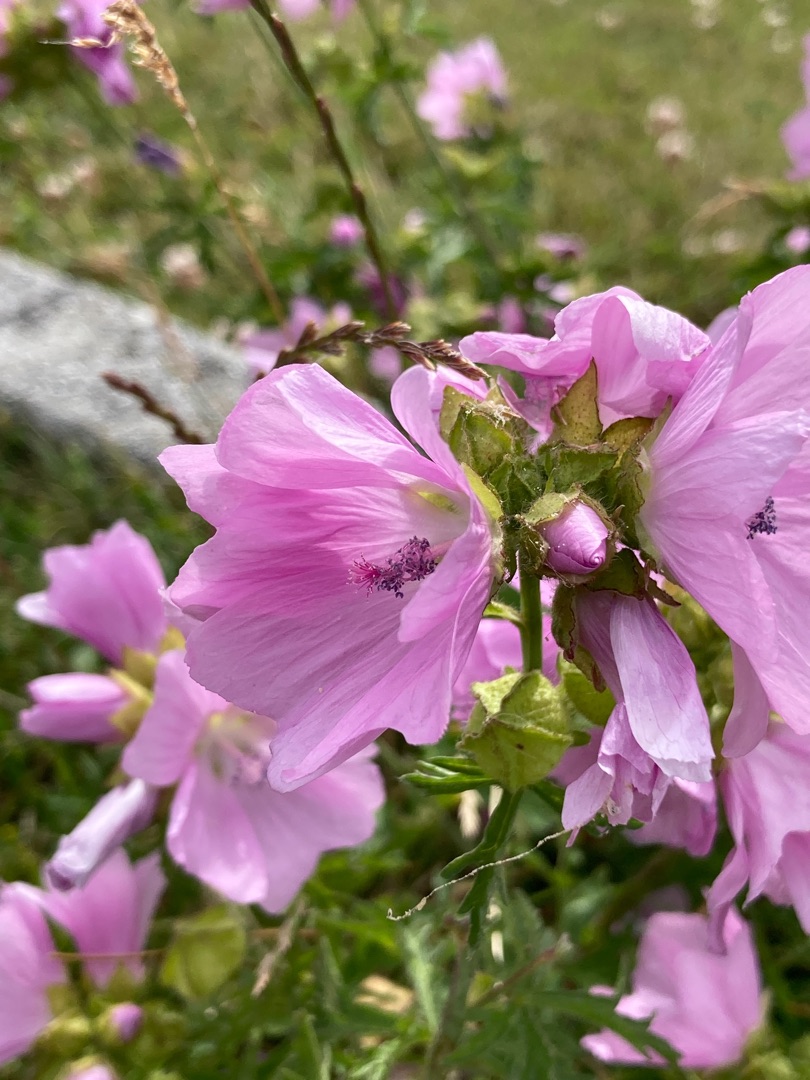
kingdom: Plantae
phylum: Tracheophyta
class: Magnoliopsida
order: Malvales
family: Malvaceae
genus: Malva
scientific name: Malva moschata
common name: Moskus-katost
